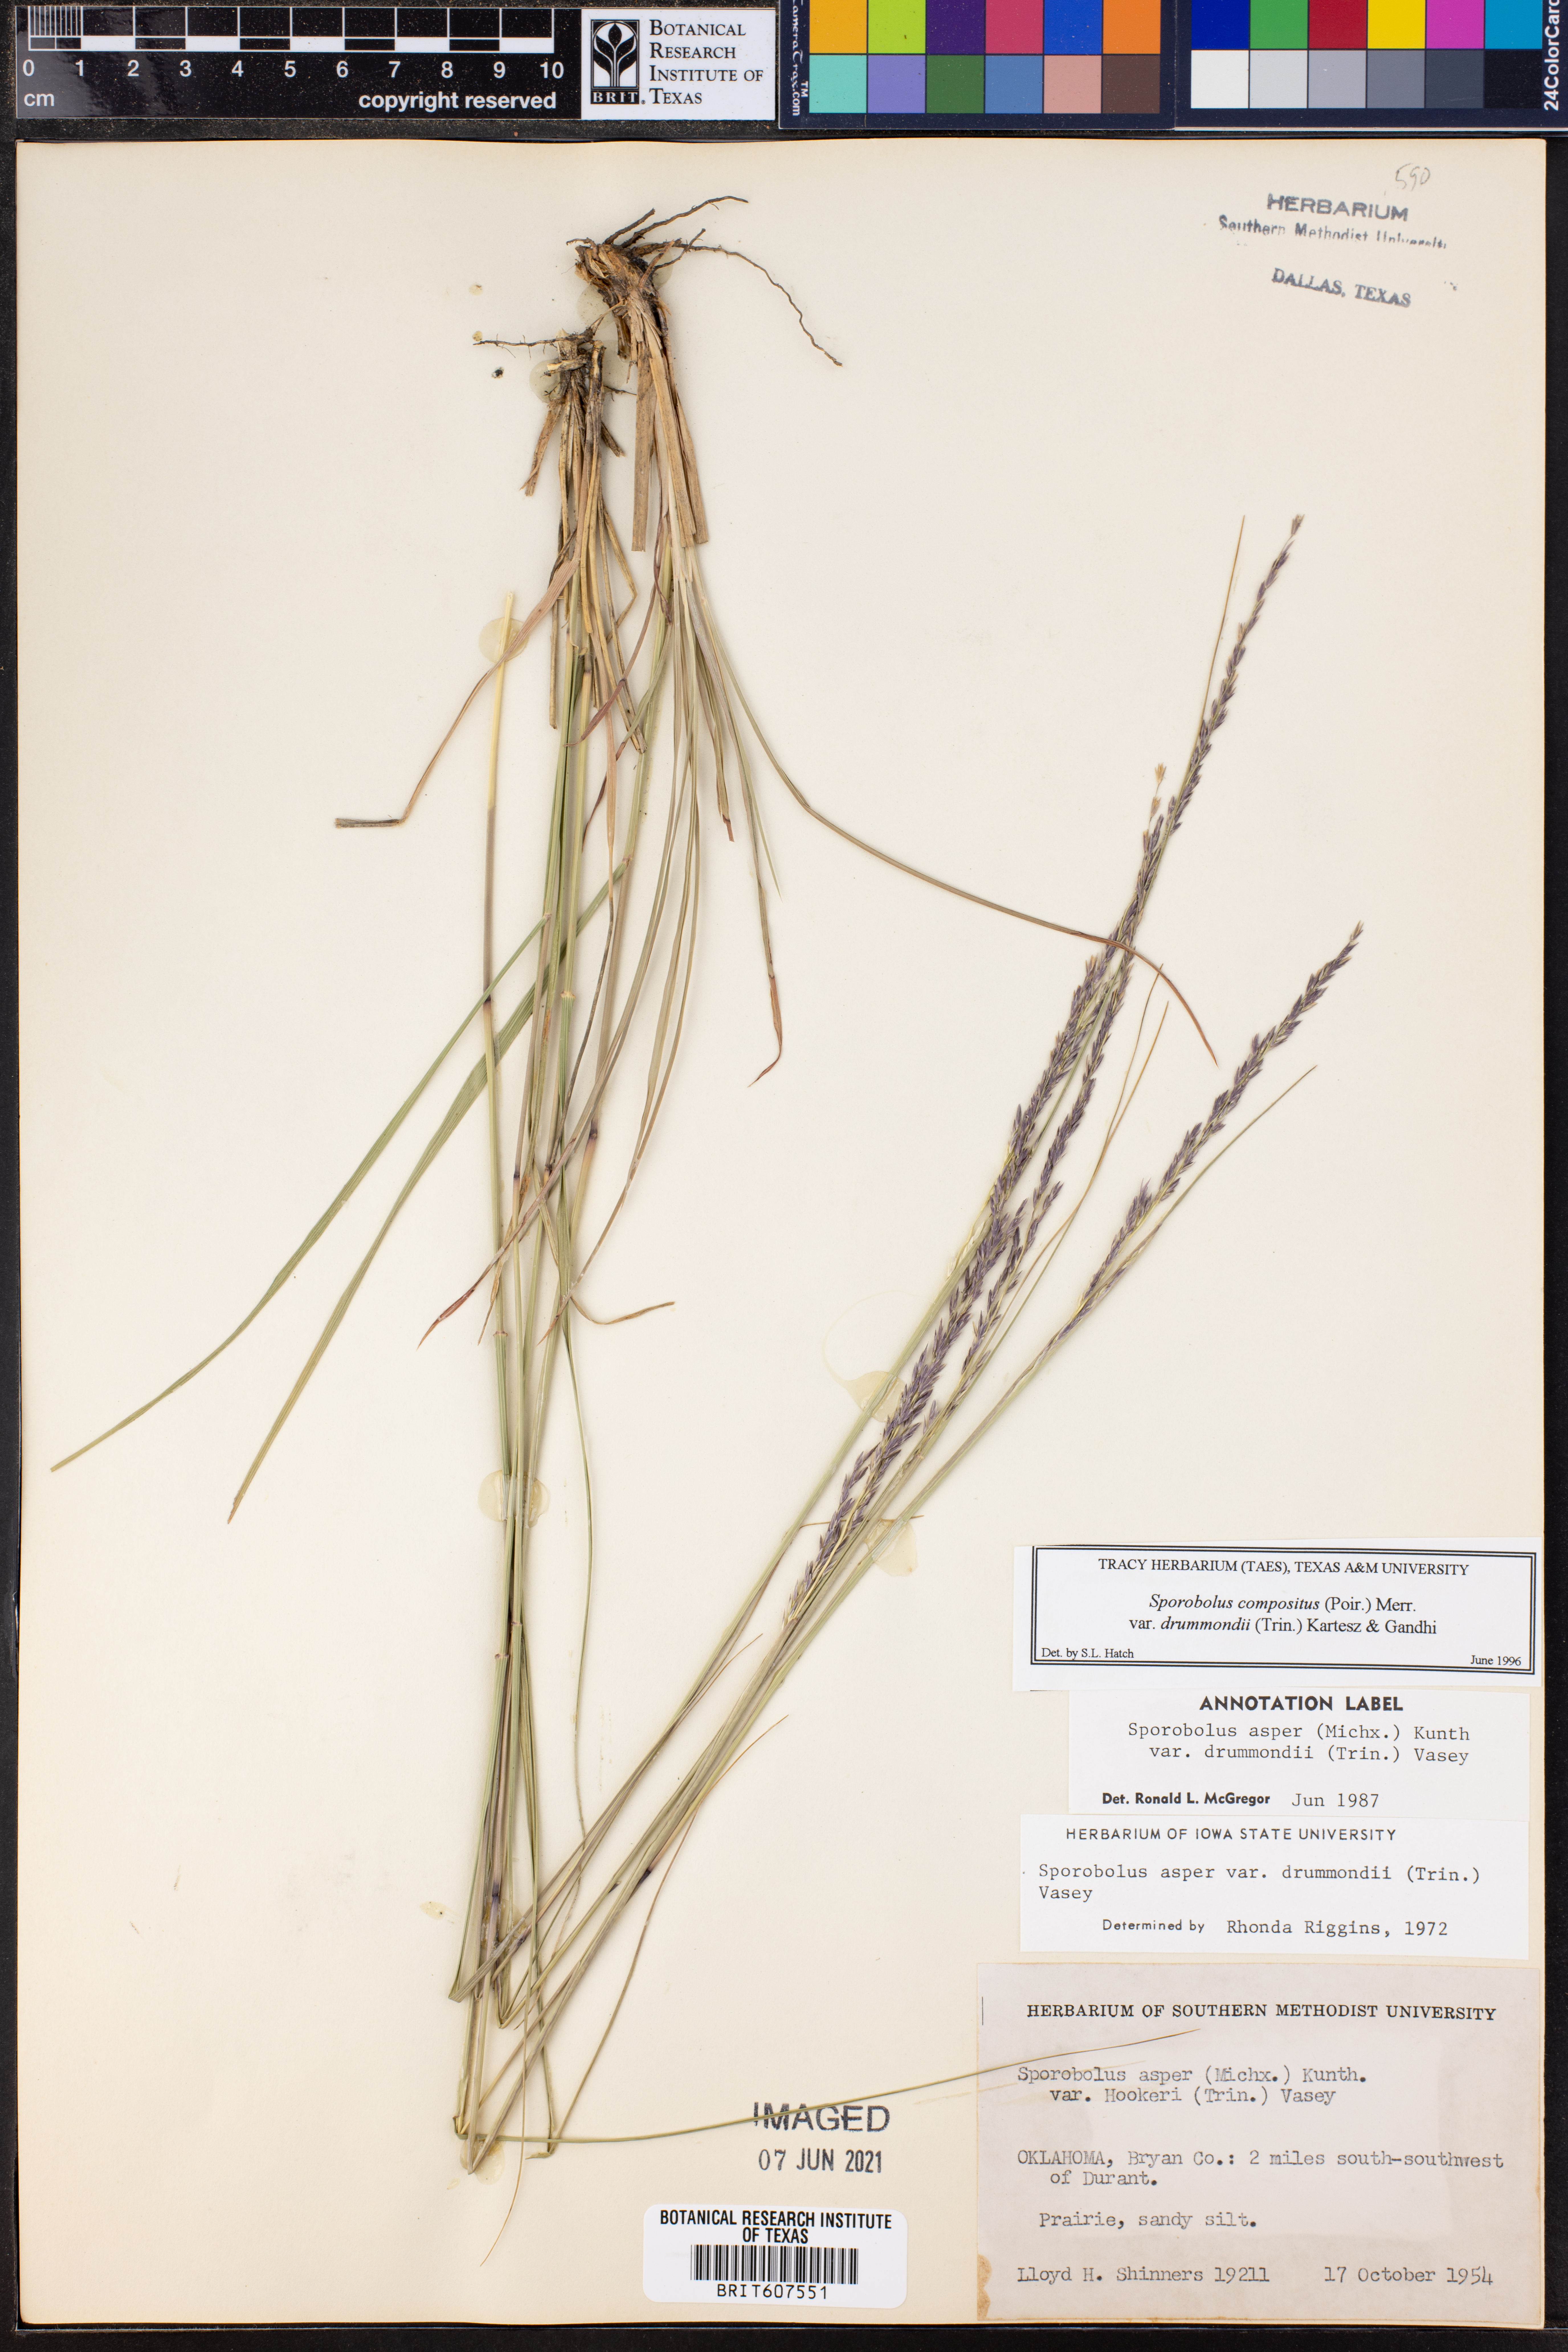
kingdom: Plantae
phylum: Tracheophyta
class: Liliopsida
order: Poales
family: Poaceae
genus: Sporobolus
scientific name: Sporobolus compositus
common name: Rough dropseed
